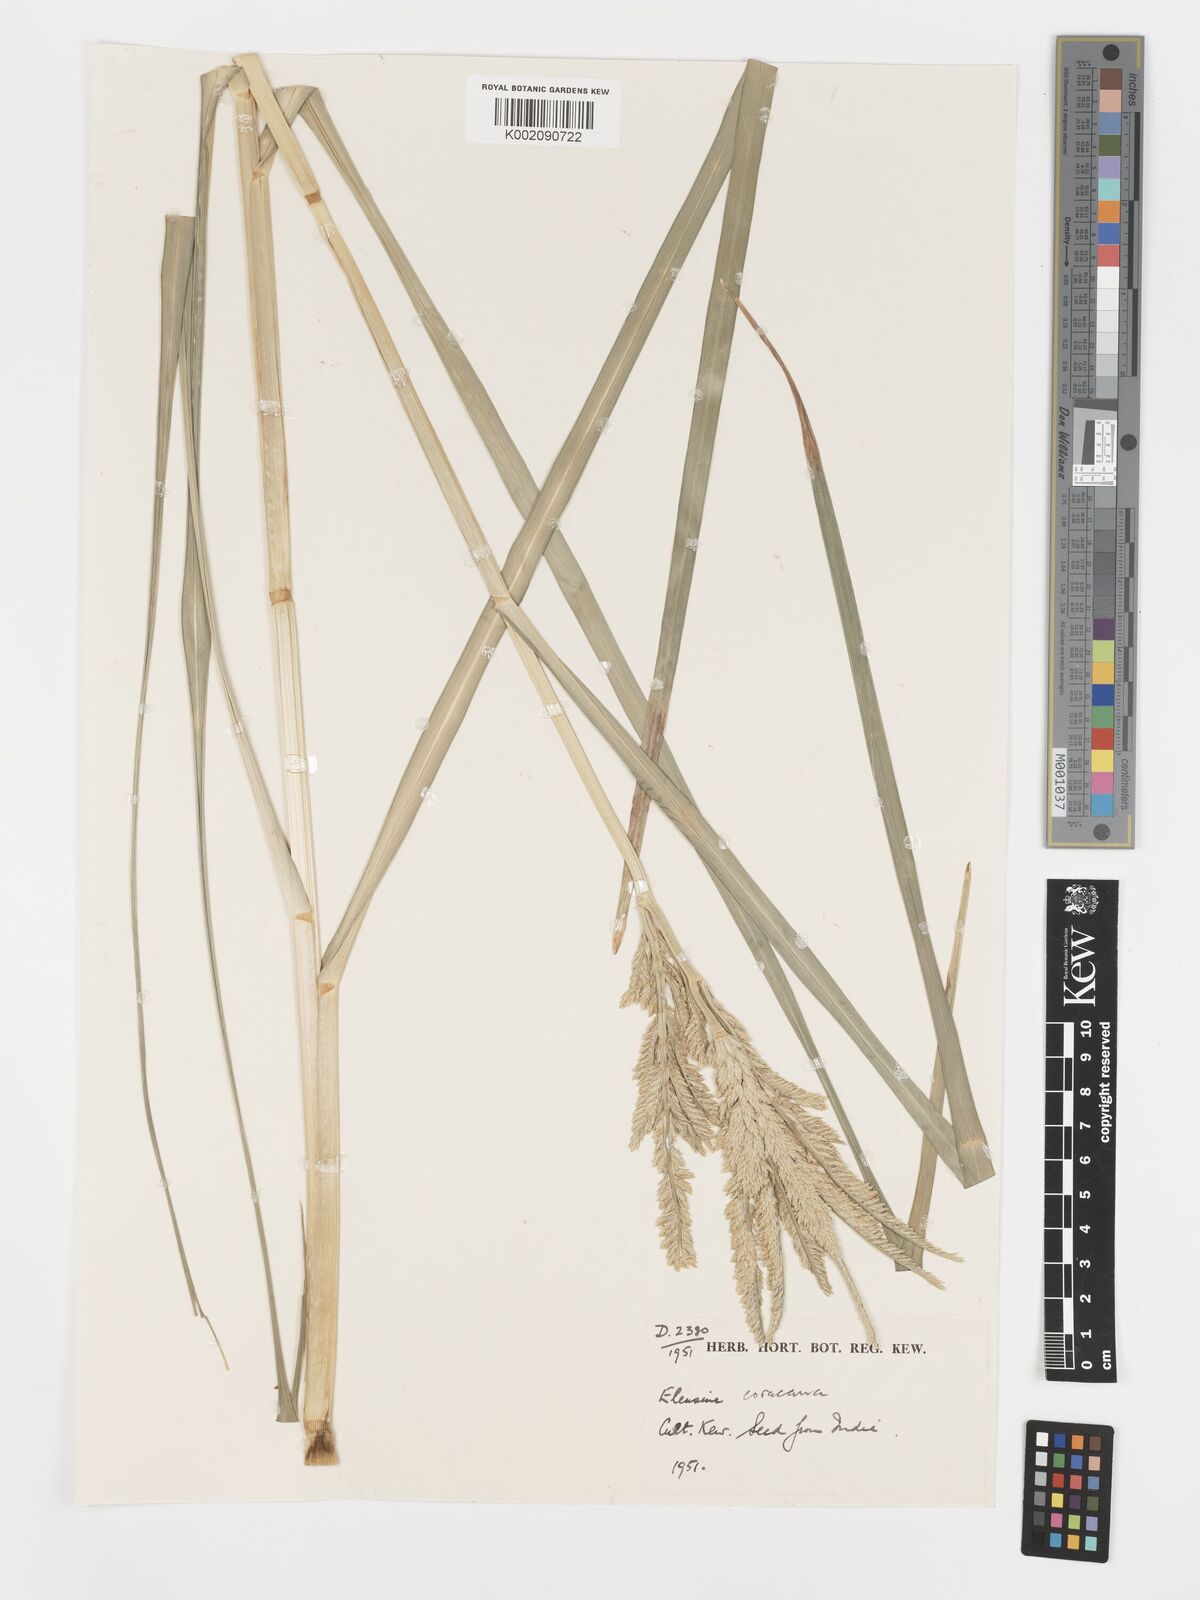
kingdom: Plantae
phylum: Tracheophyta
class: Liliopsida
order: Poales
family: Poaceae
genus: Eleusine
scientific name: Eleusine coracana
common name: Finger millet
